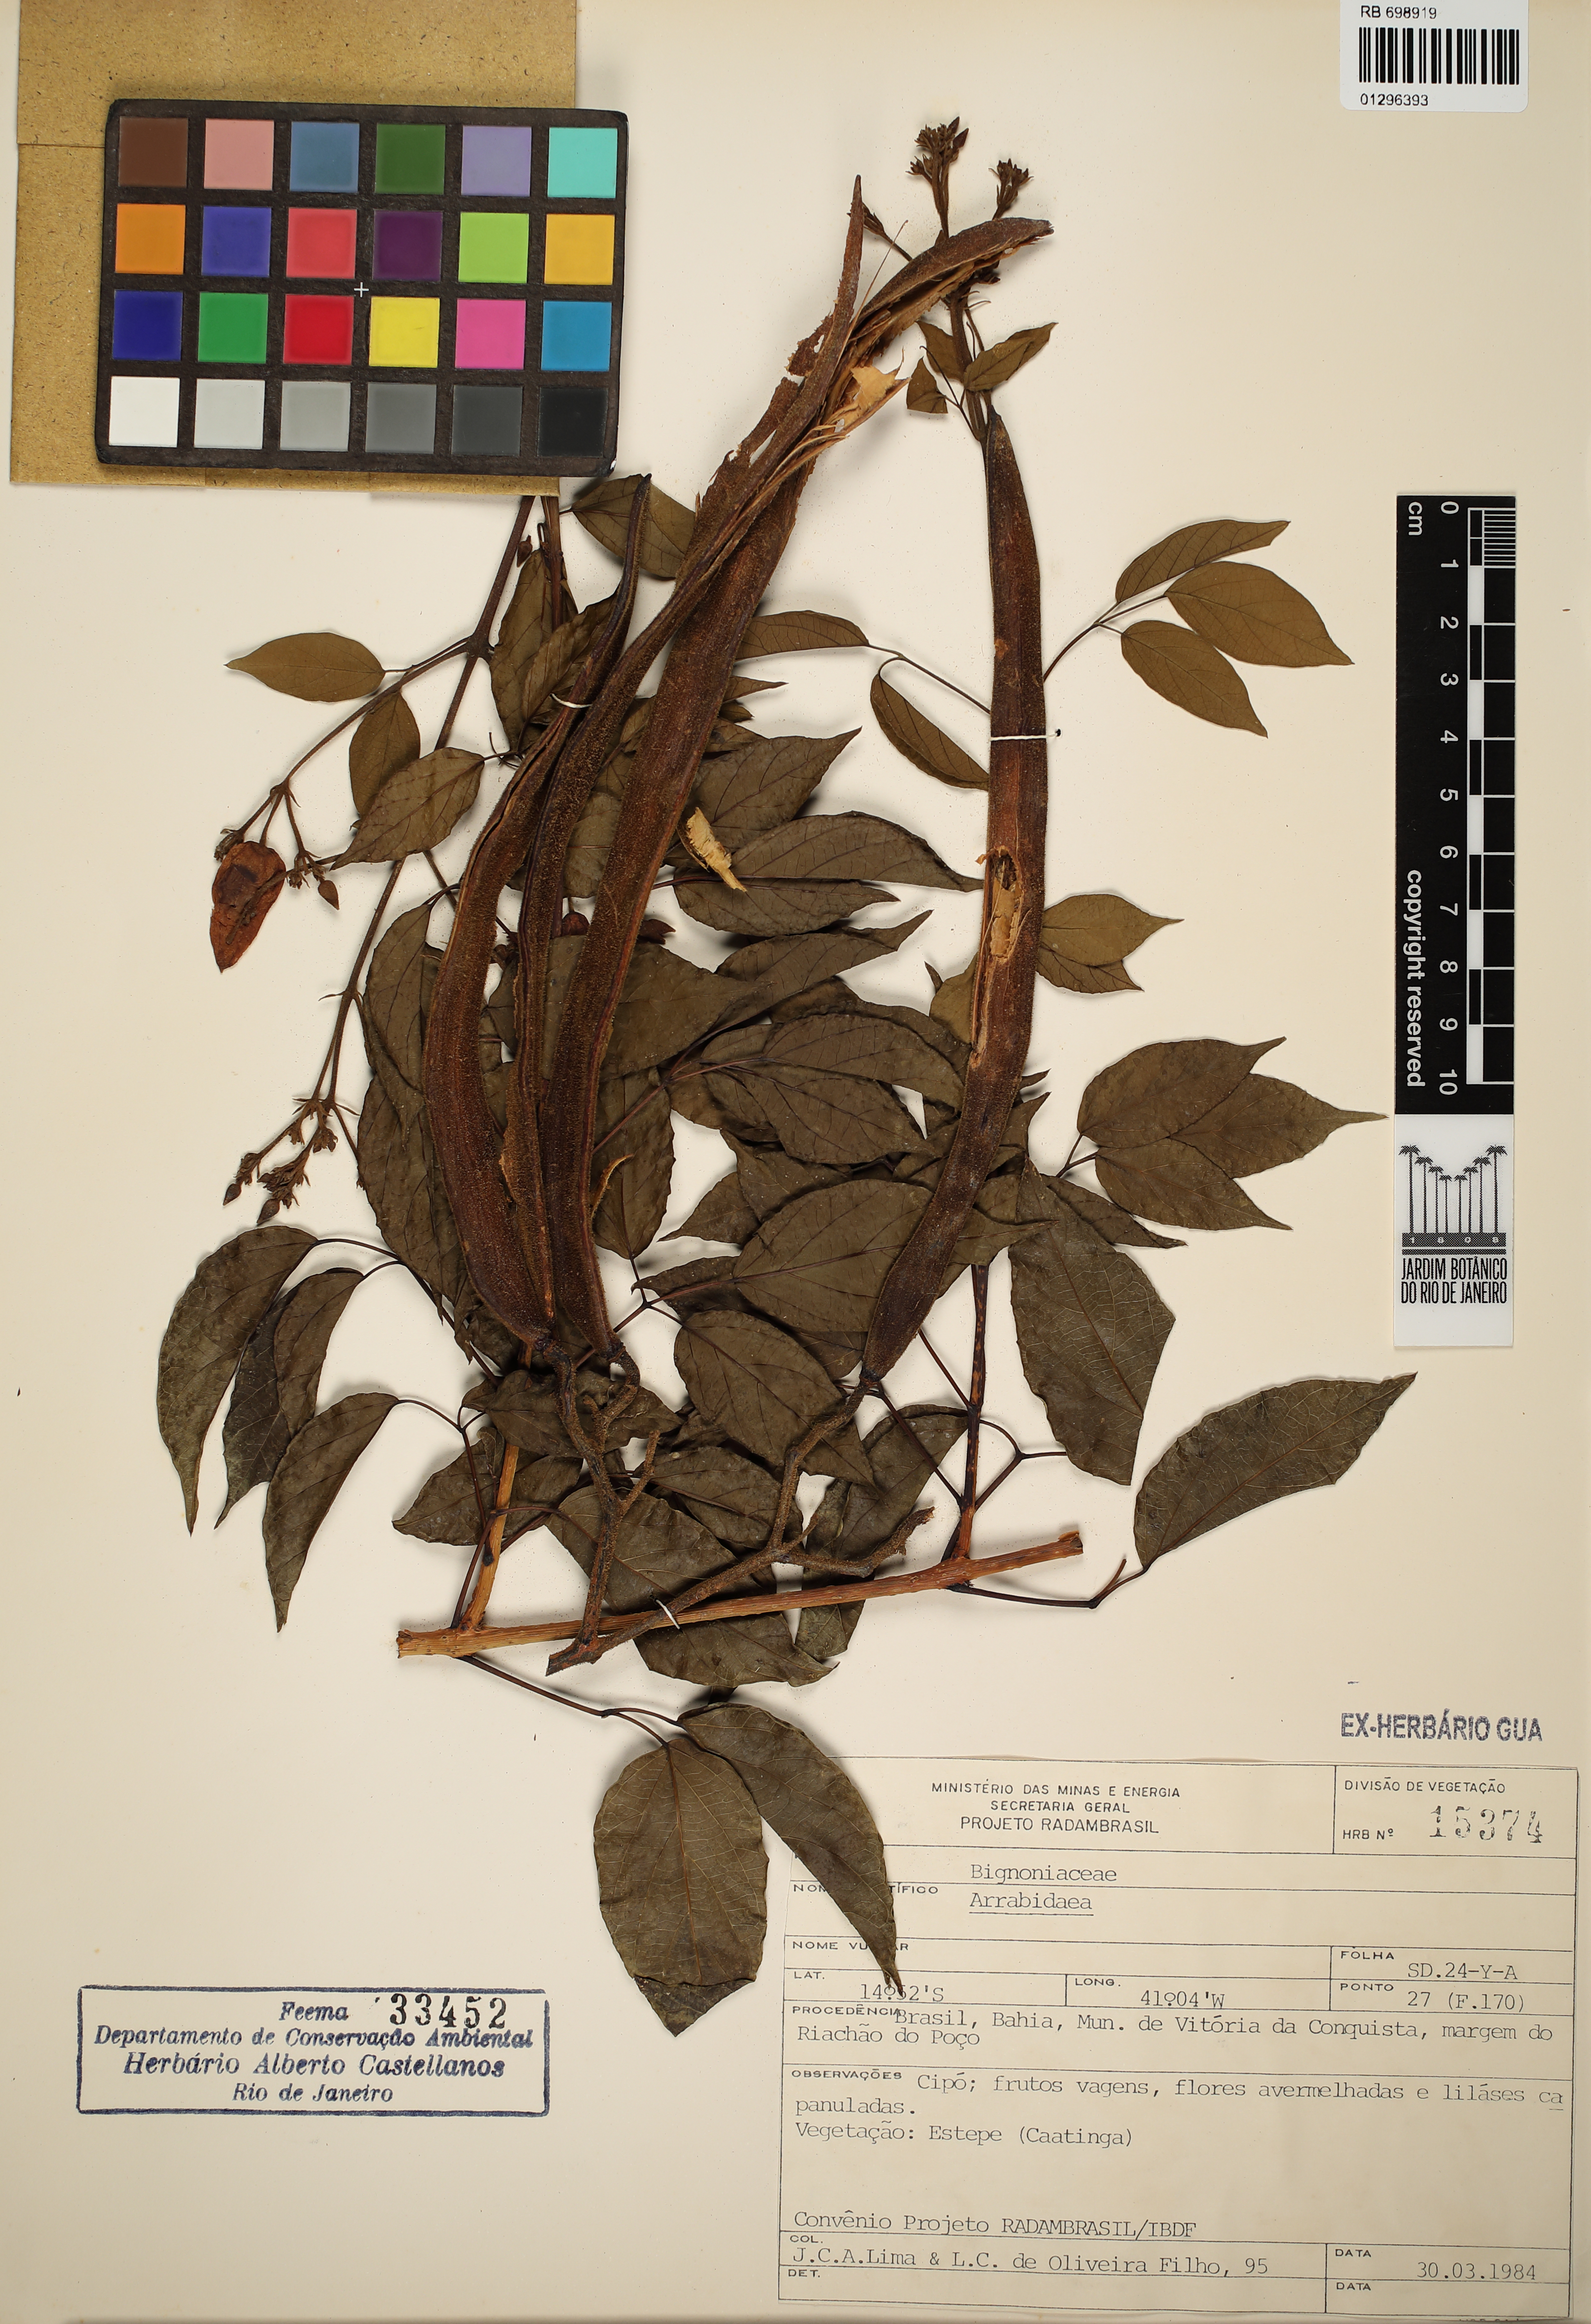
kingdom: Plantae
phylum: Tracheophyta
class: Magnoliopsida
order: Lamiales
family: Bignoniaceae
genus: Fridericia
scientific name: Fridericia
